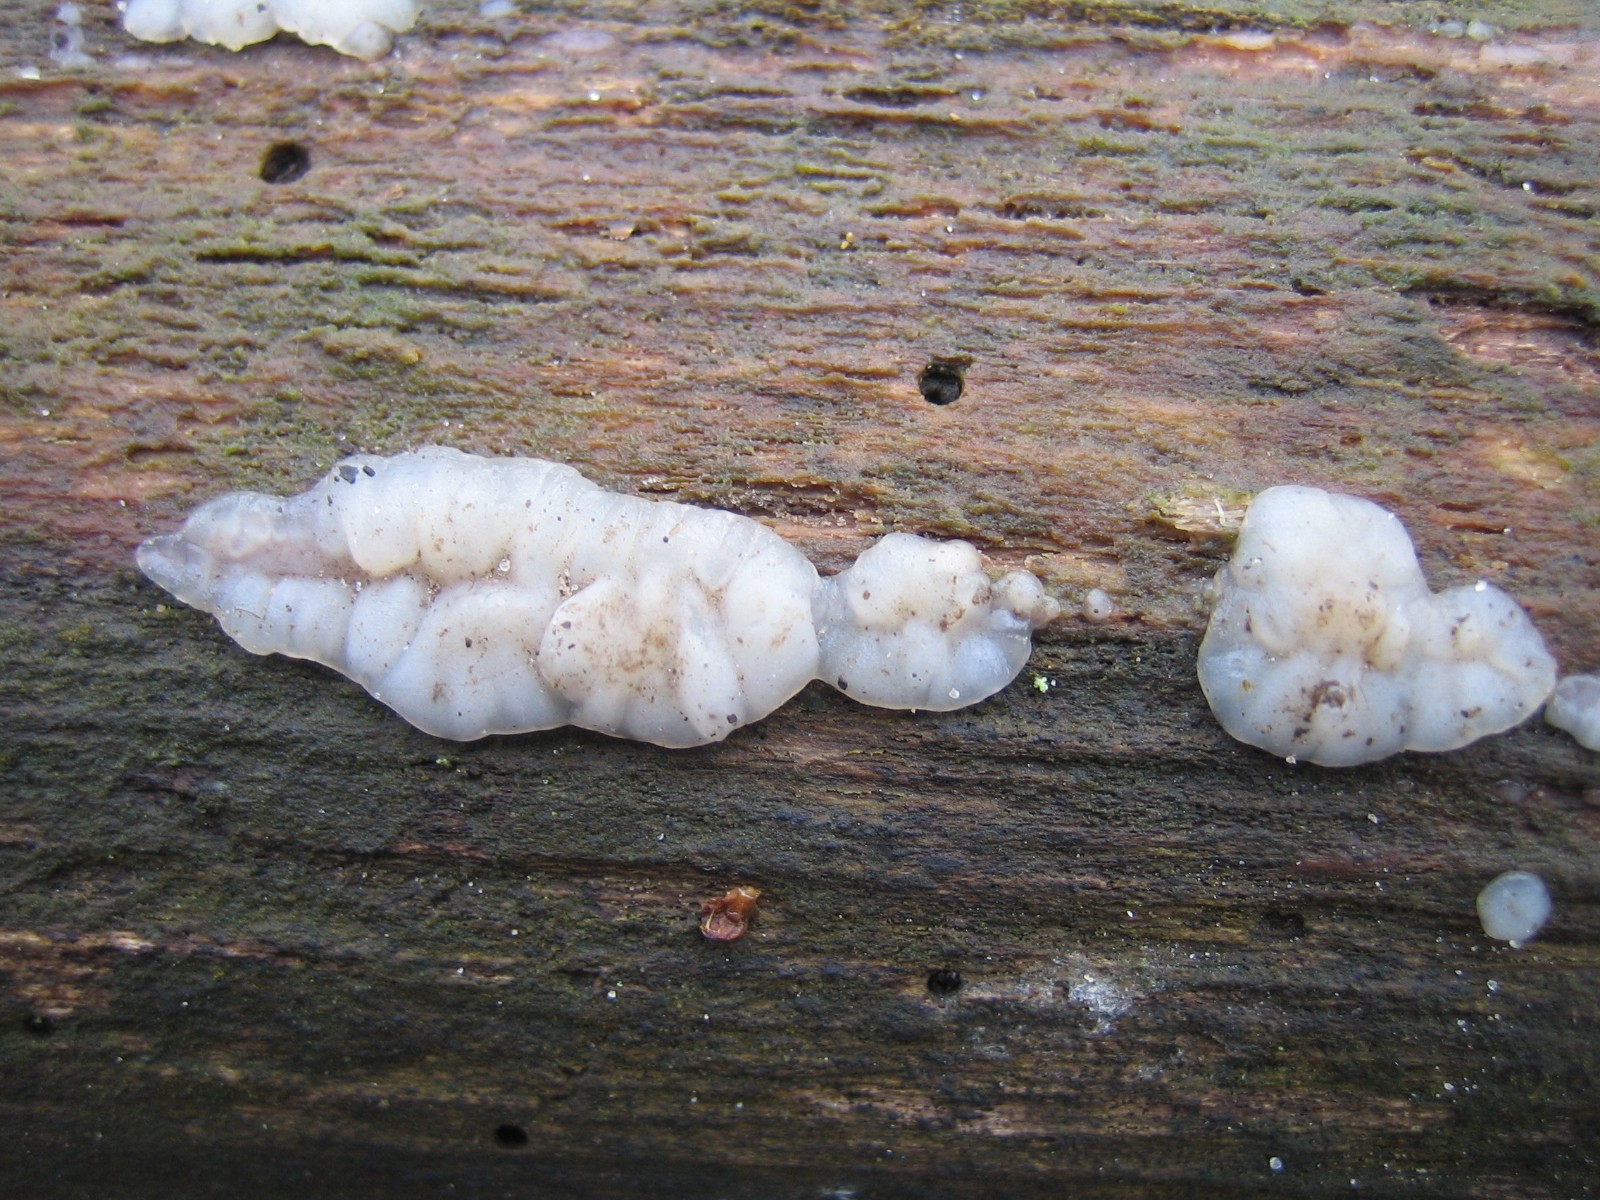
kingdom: Fungi
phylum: Basidiomycota
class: Agaricomycetes
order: Auriculariales
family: Auriculariaceae
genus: Exidia
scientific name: Exidia thuretiana
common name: hvidlig bævretop
